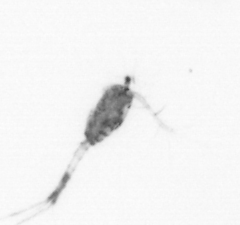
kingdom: Animalia
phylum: Arthropoda
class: Copepoda
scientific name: Copepoda
